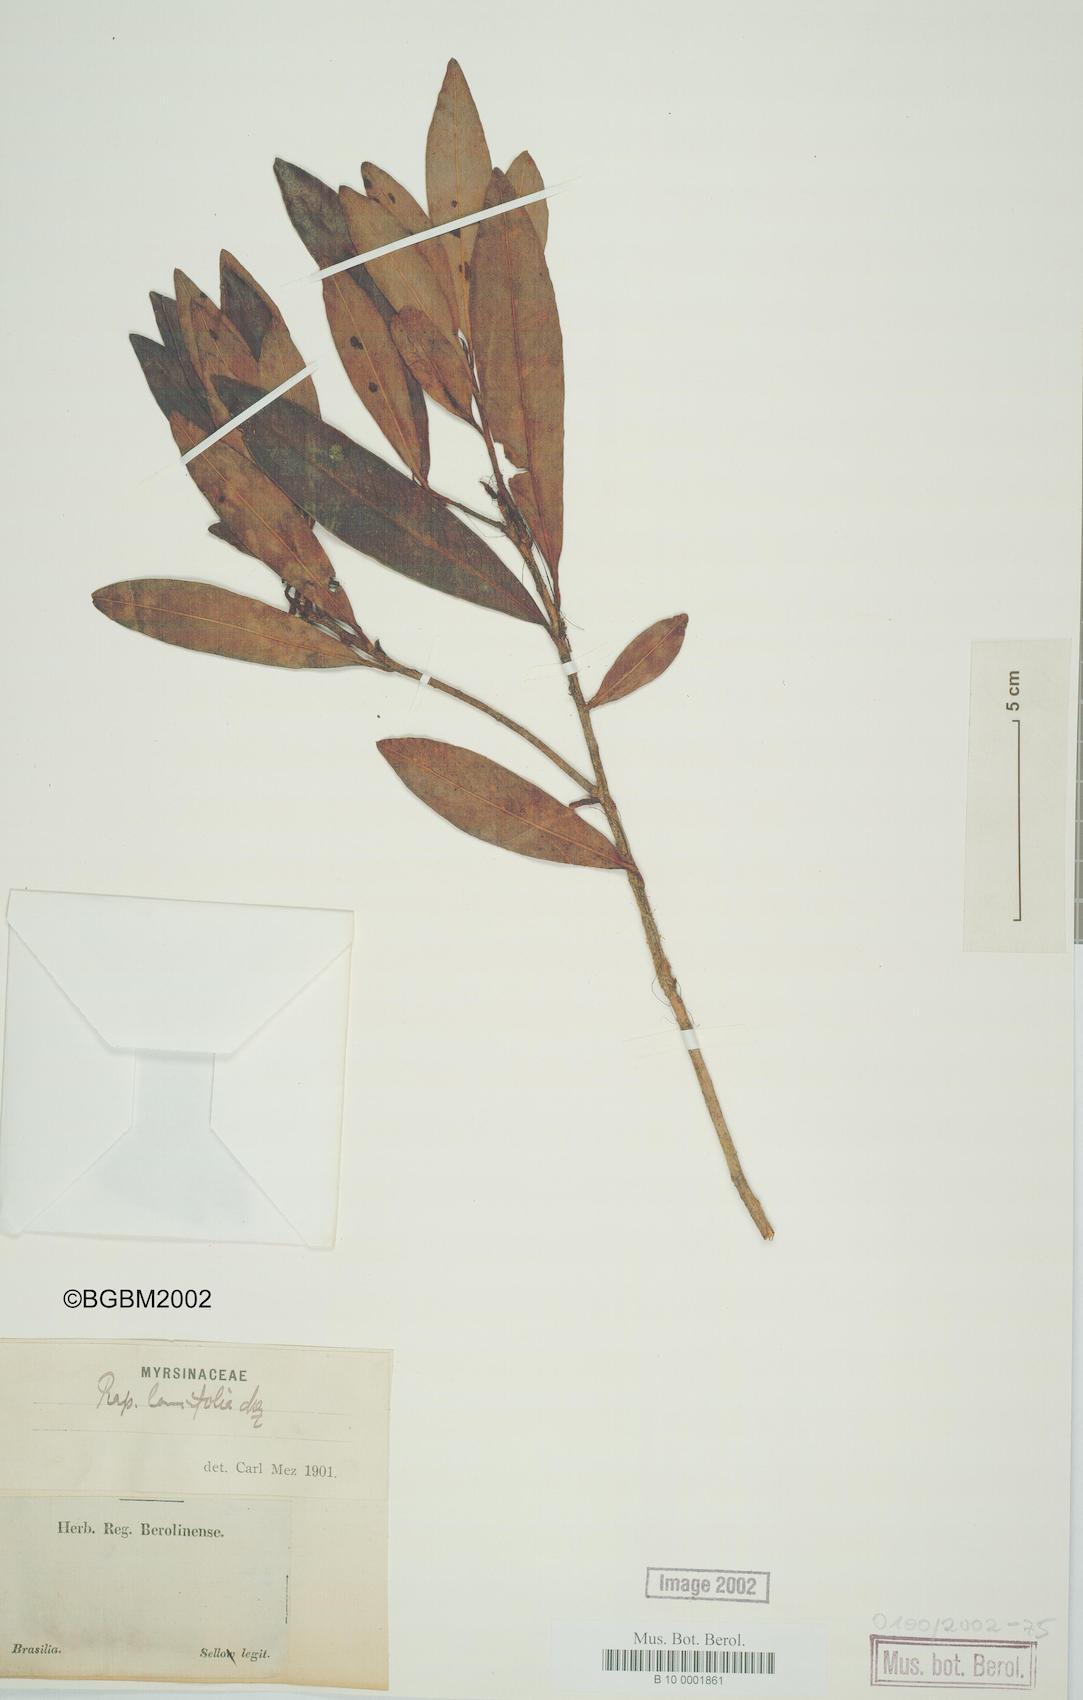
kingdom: Plantae
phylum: Tracheophyta
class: Magnoliopsida
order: Ericales
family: Primulaceae
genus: Myrsine
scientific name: Myrsine latifolia
